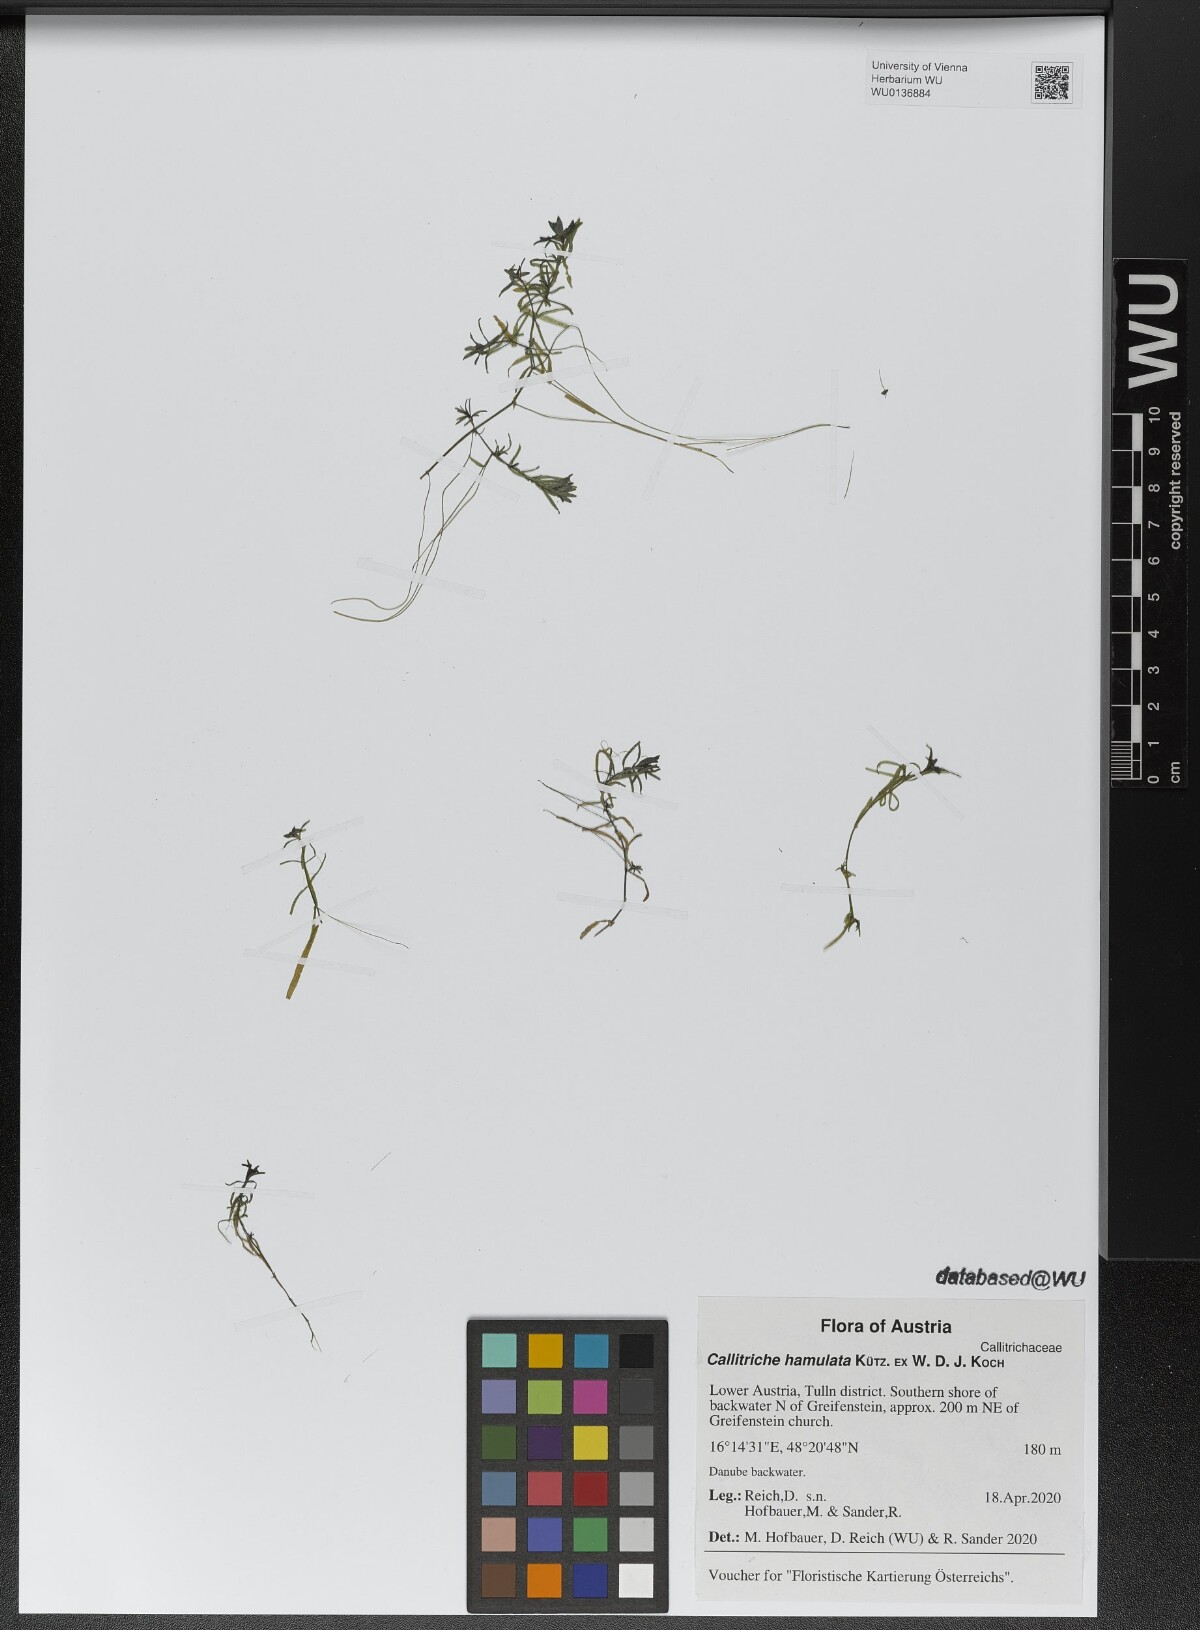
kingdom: Plantae
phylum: Tracheophyta
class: Magnoliopsida
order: Lamiales
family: Plantaginaceae
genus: Callitriche
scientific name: Callitriche hamulata
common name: Intermediate water-starwort
